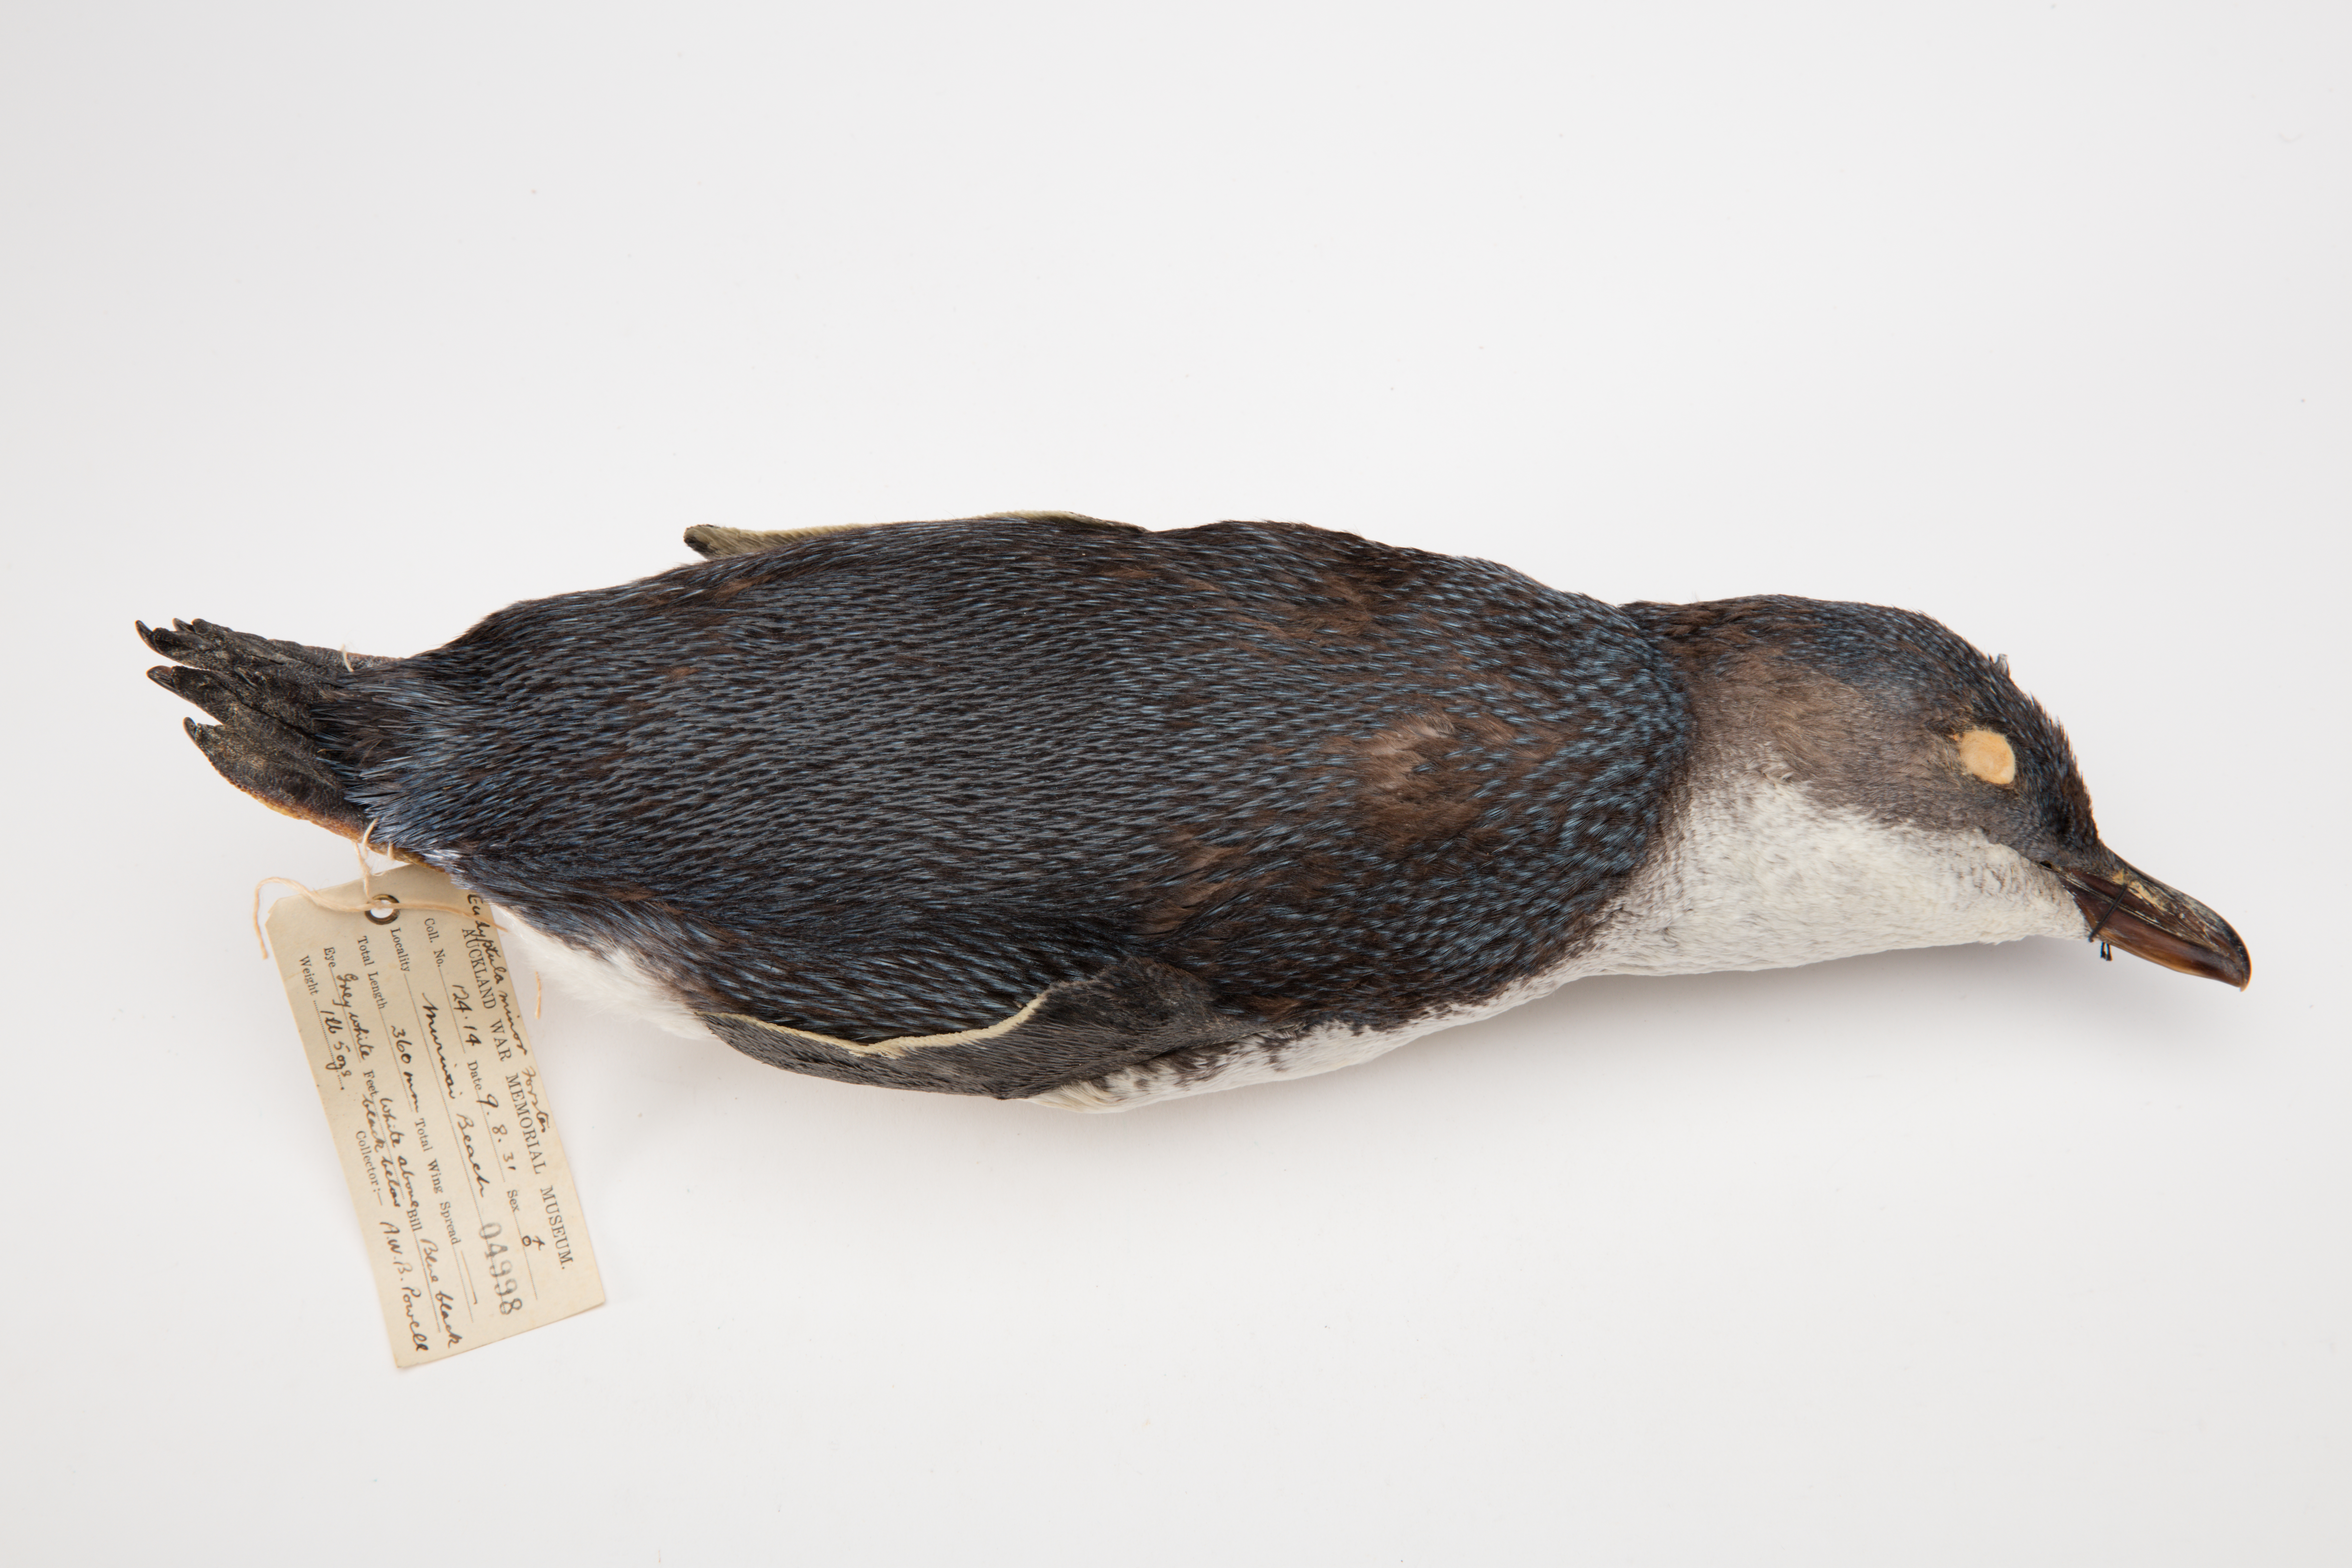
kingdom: Animalia
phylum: Chordata
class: Aves
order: Sphenisciformes
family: Spheniscidae
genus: Eudyptula
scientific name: Eudyptula minor
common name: Little penguin
